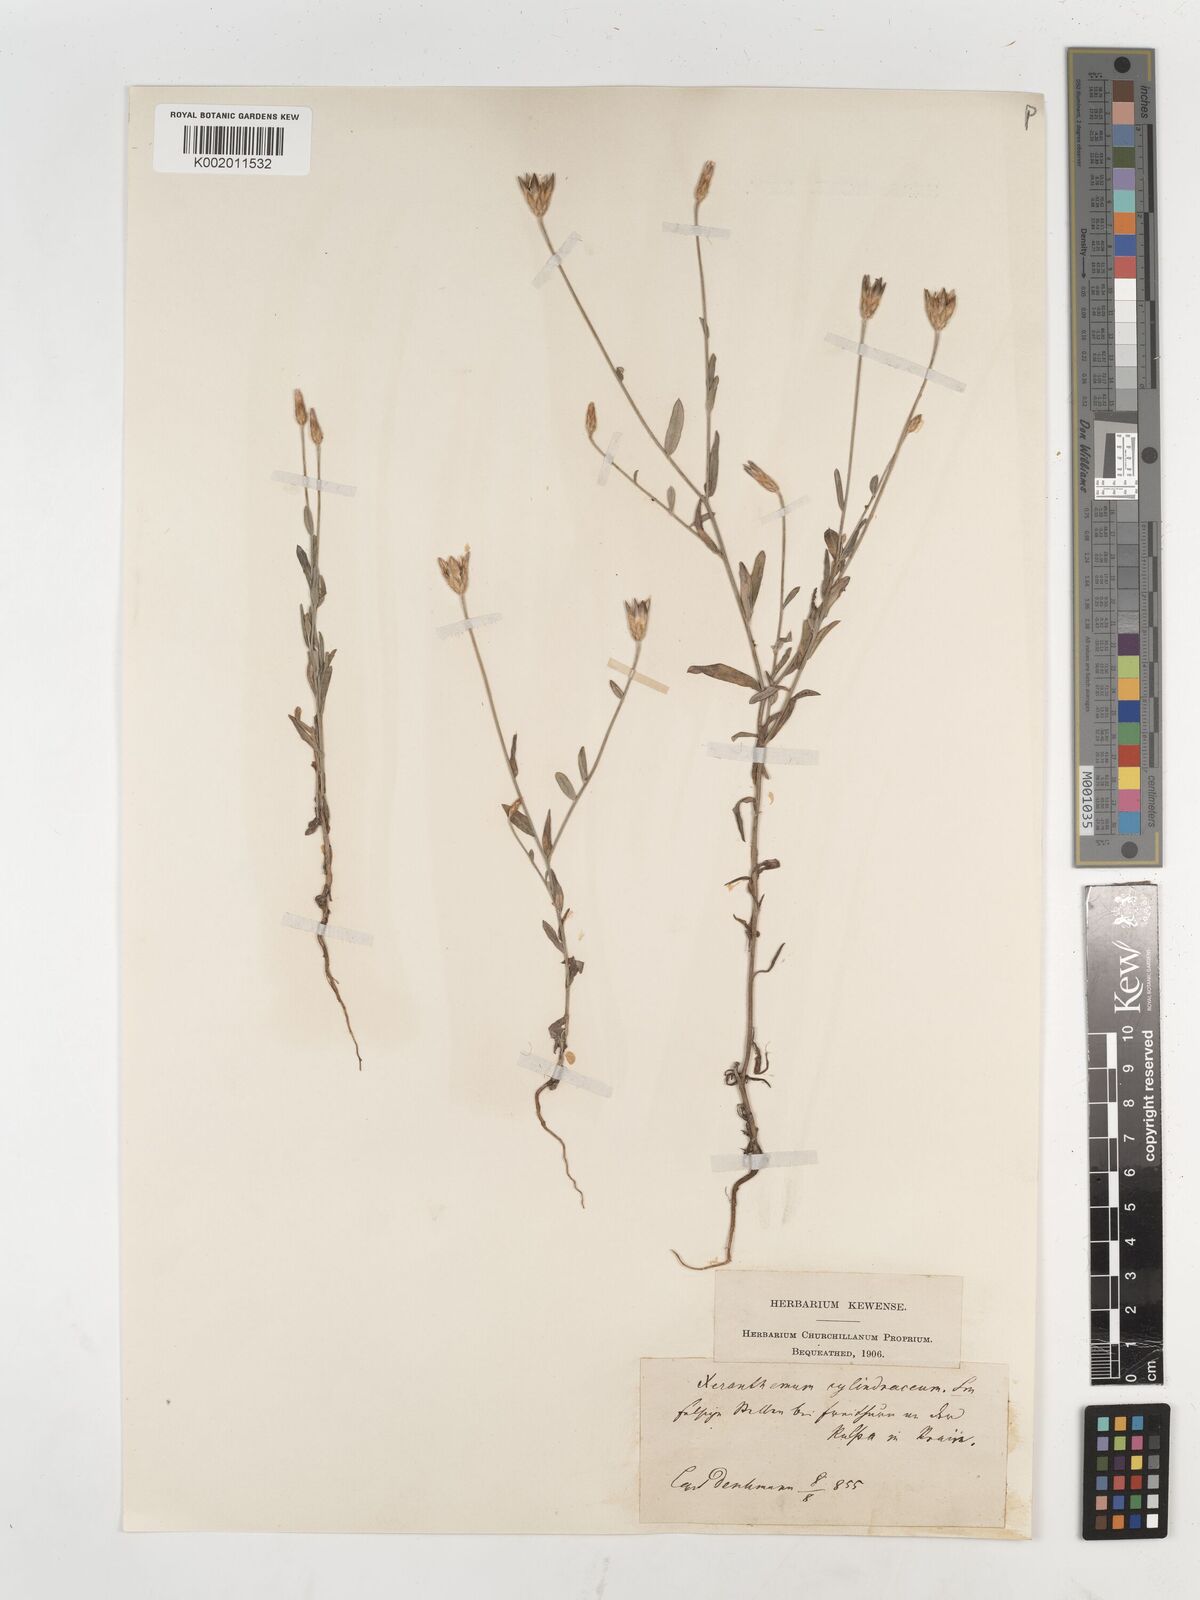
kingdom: Plantae
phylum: Tracheophyta
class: Magnoliopsida
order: Asterales
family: Asteraceae
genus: Xeranthemum
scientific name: Xeranthemum cylindraceum
